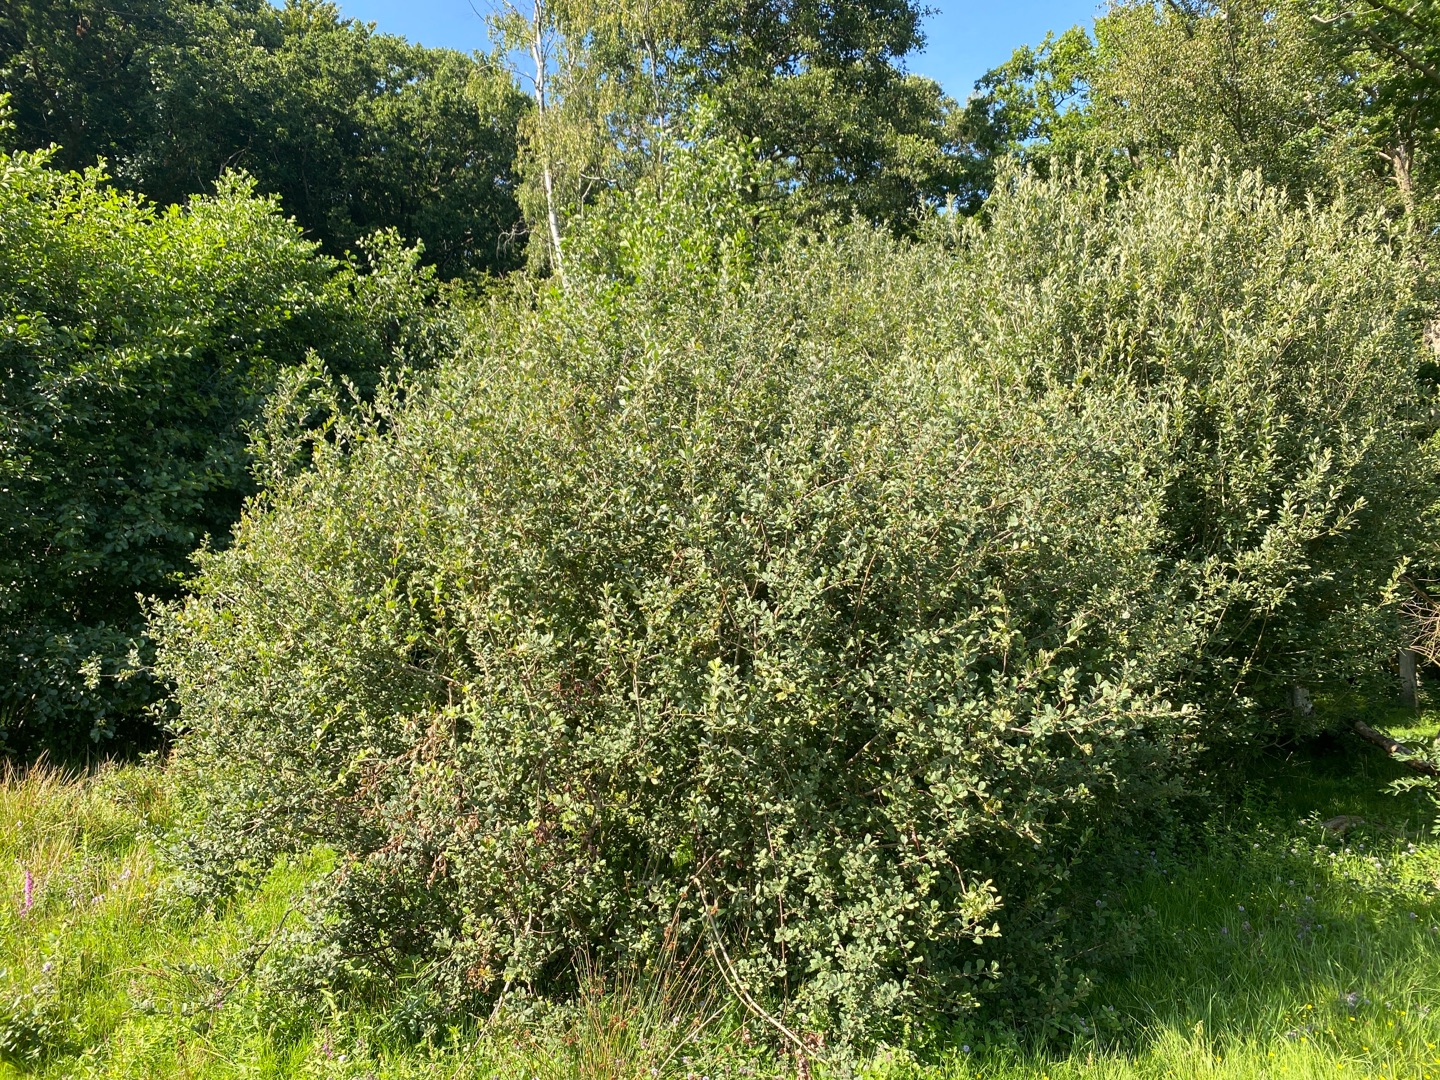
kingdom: Plantae
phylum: Tracheophyta
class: Magnoliopsida
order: Malpighiales
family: Salicaceae
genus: Salix
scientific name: Salix aurita
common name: Øret pil
